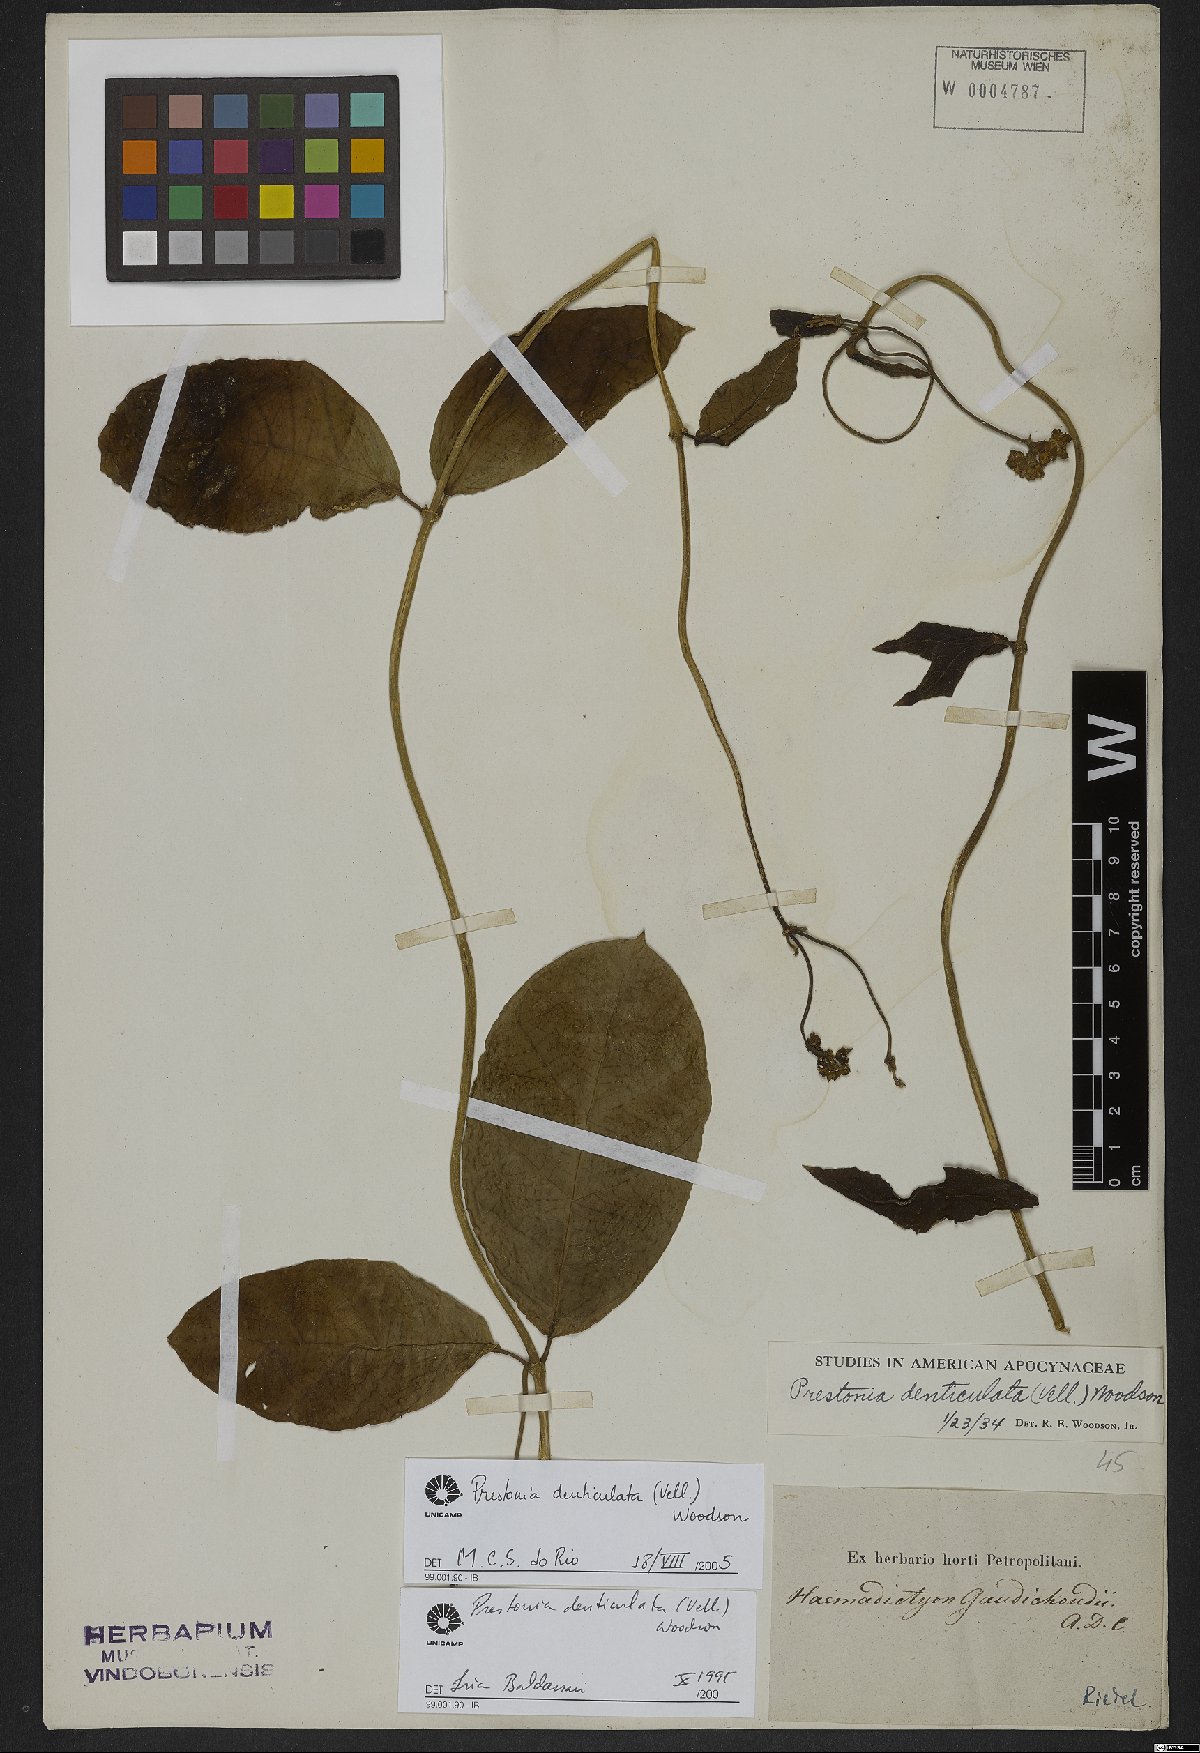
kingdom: Plantae
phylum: Tracheophyta
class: Magnoliopsida
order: Gentianales
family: Apocynaceae
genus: Prestonia
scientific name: Prestonia denticulata
